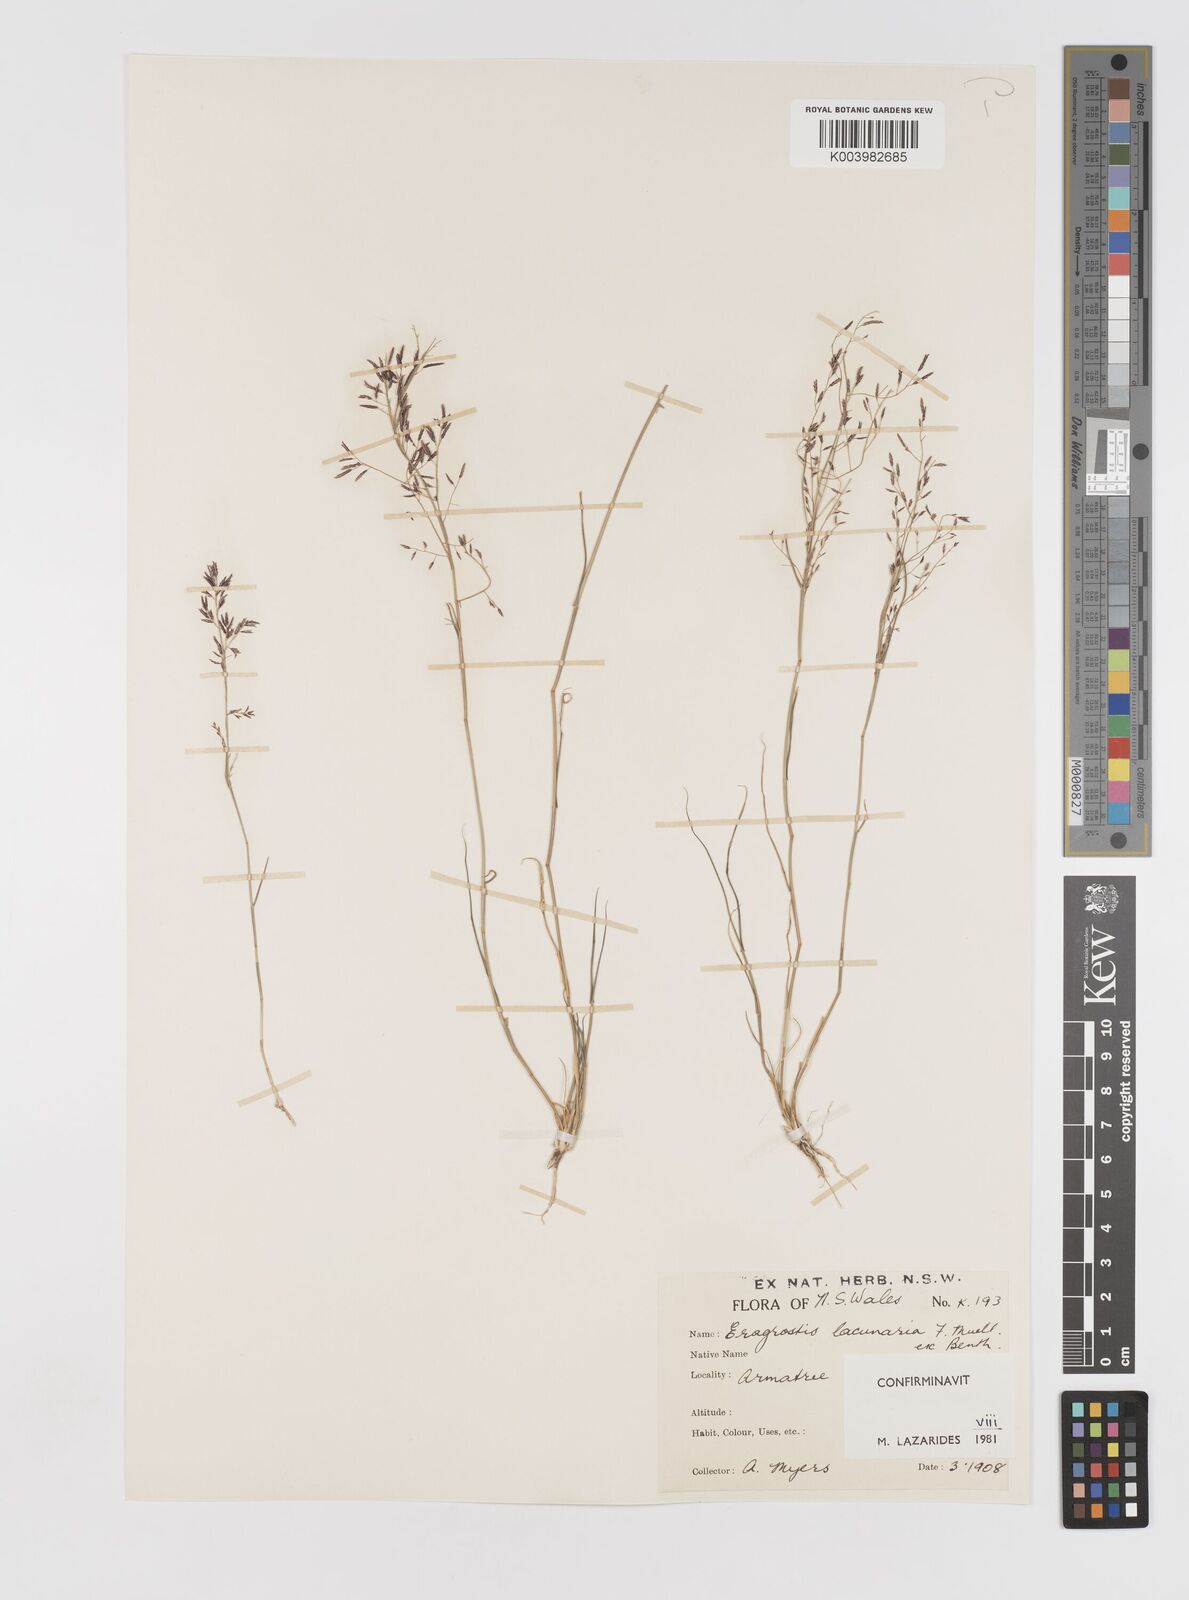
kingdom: Plantae
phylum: Tracheophyta
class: Liliopsida
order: Poales
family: Poaceae
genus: Eragrostis
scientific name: Eragrostis lacunaria
